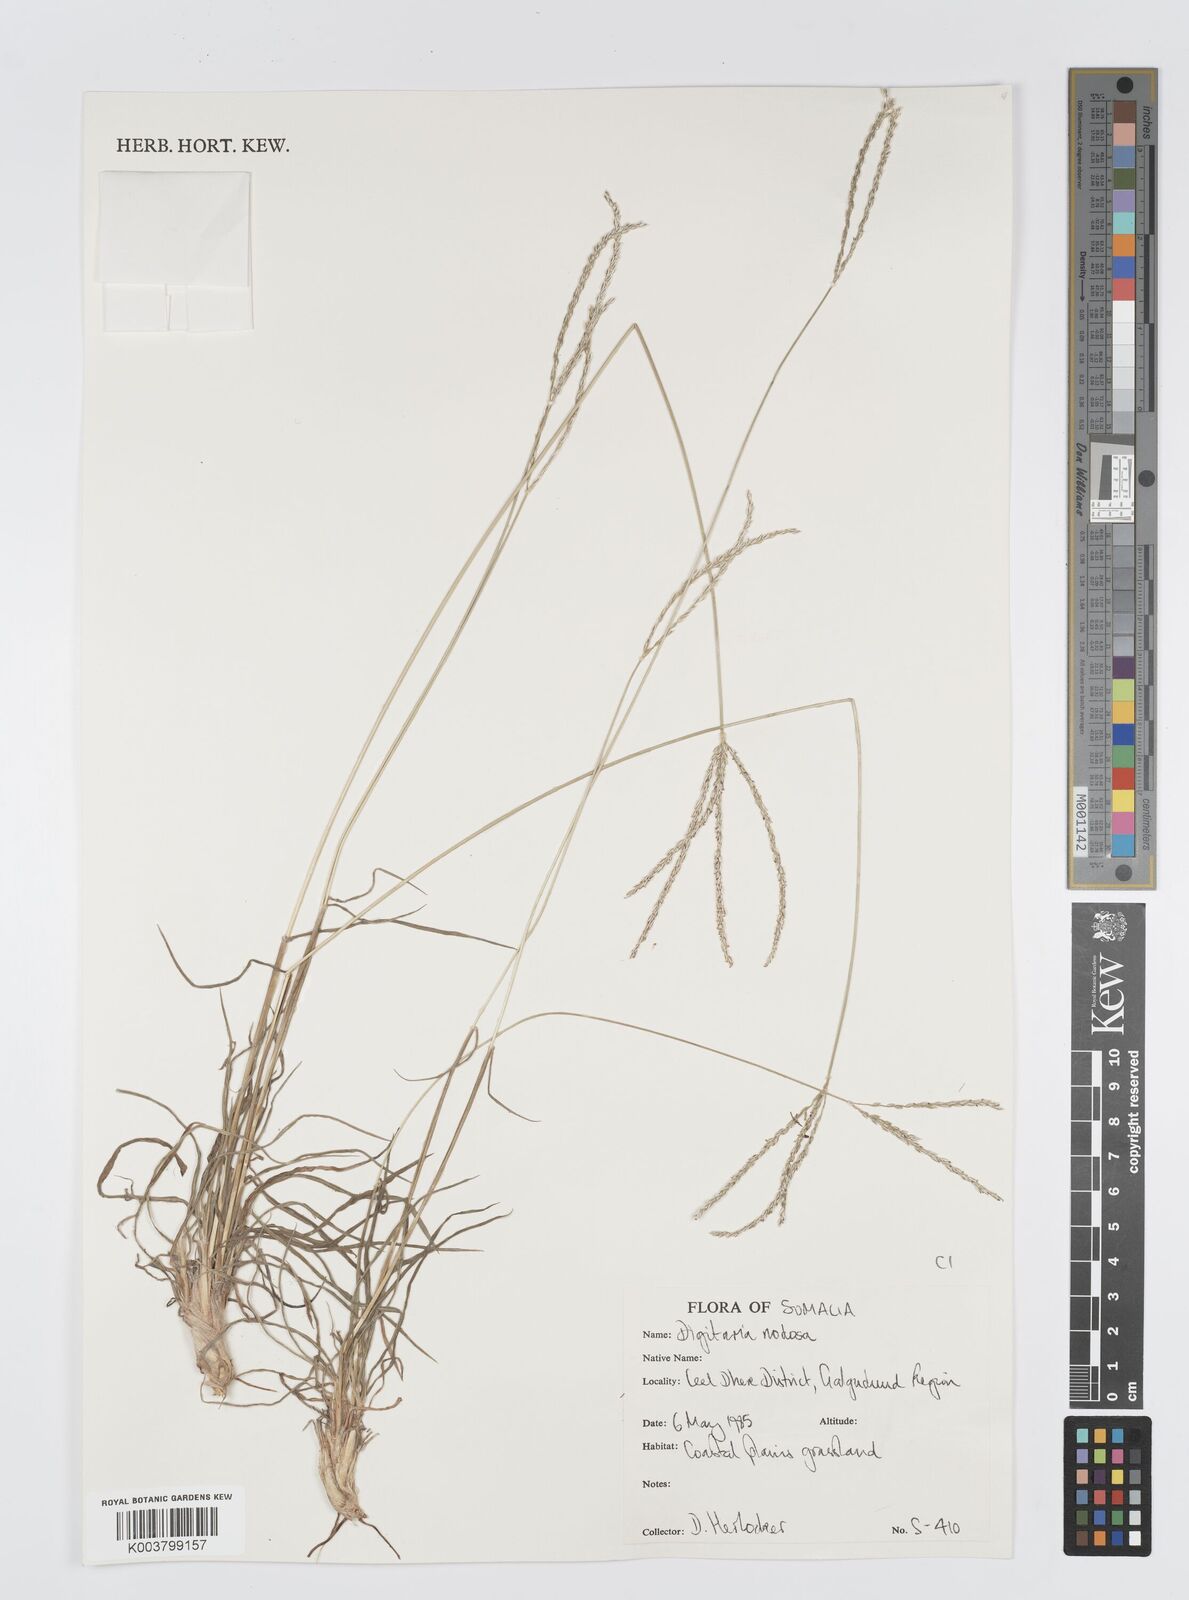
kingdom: Plantae
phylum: Tracheophyta
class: Liliopsida
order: Poales
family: Poaceae
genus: Digitaria
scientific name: Digitaria nodosa
